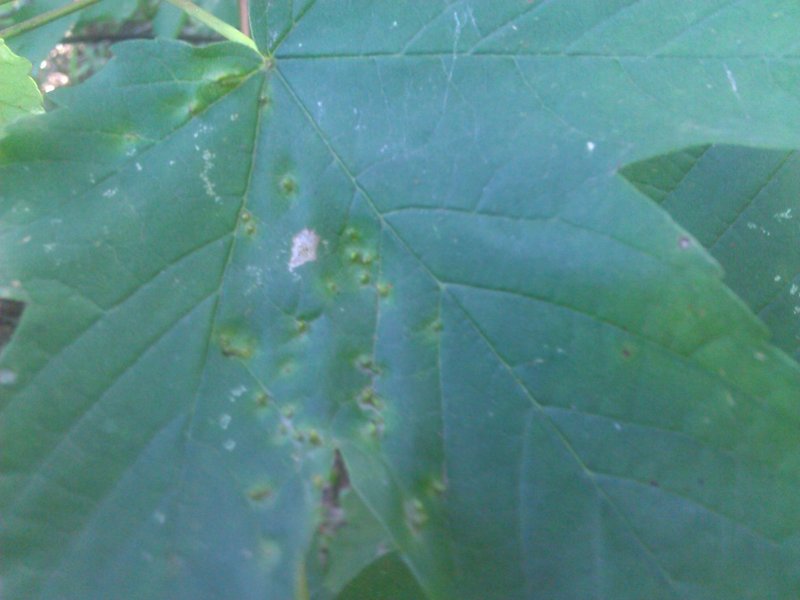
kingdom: Animalia
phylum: Arthropoda
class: Arachnida
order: Trombidiformes
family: Eriophyidae
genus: Aceria
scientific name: Aceria
